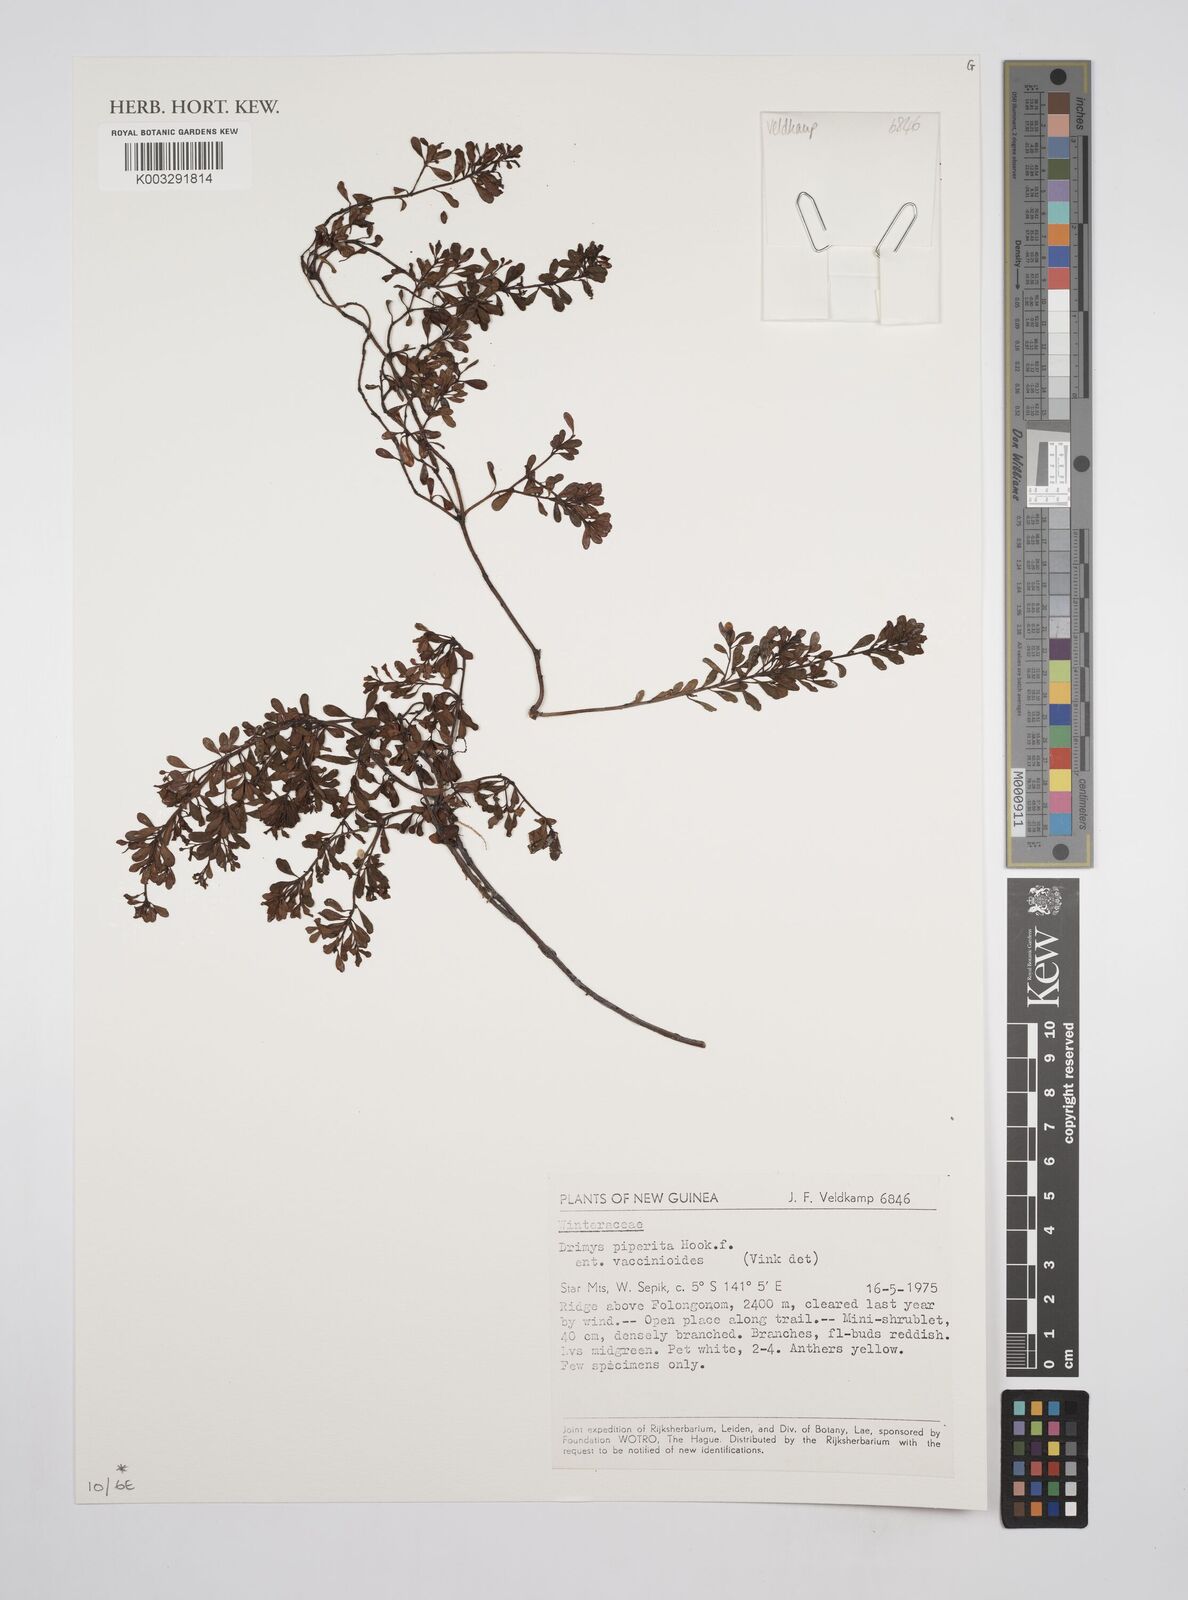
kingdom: Plantae
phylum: Tracheophyta
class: Magnoliopsida
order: Canellales
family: Winteraceae
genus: Drimys
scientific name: Drimys piperita
